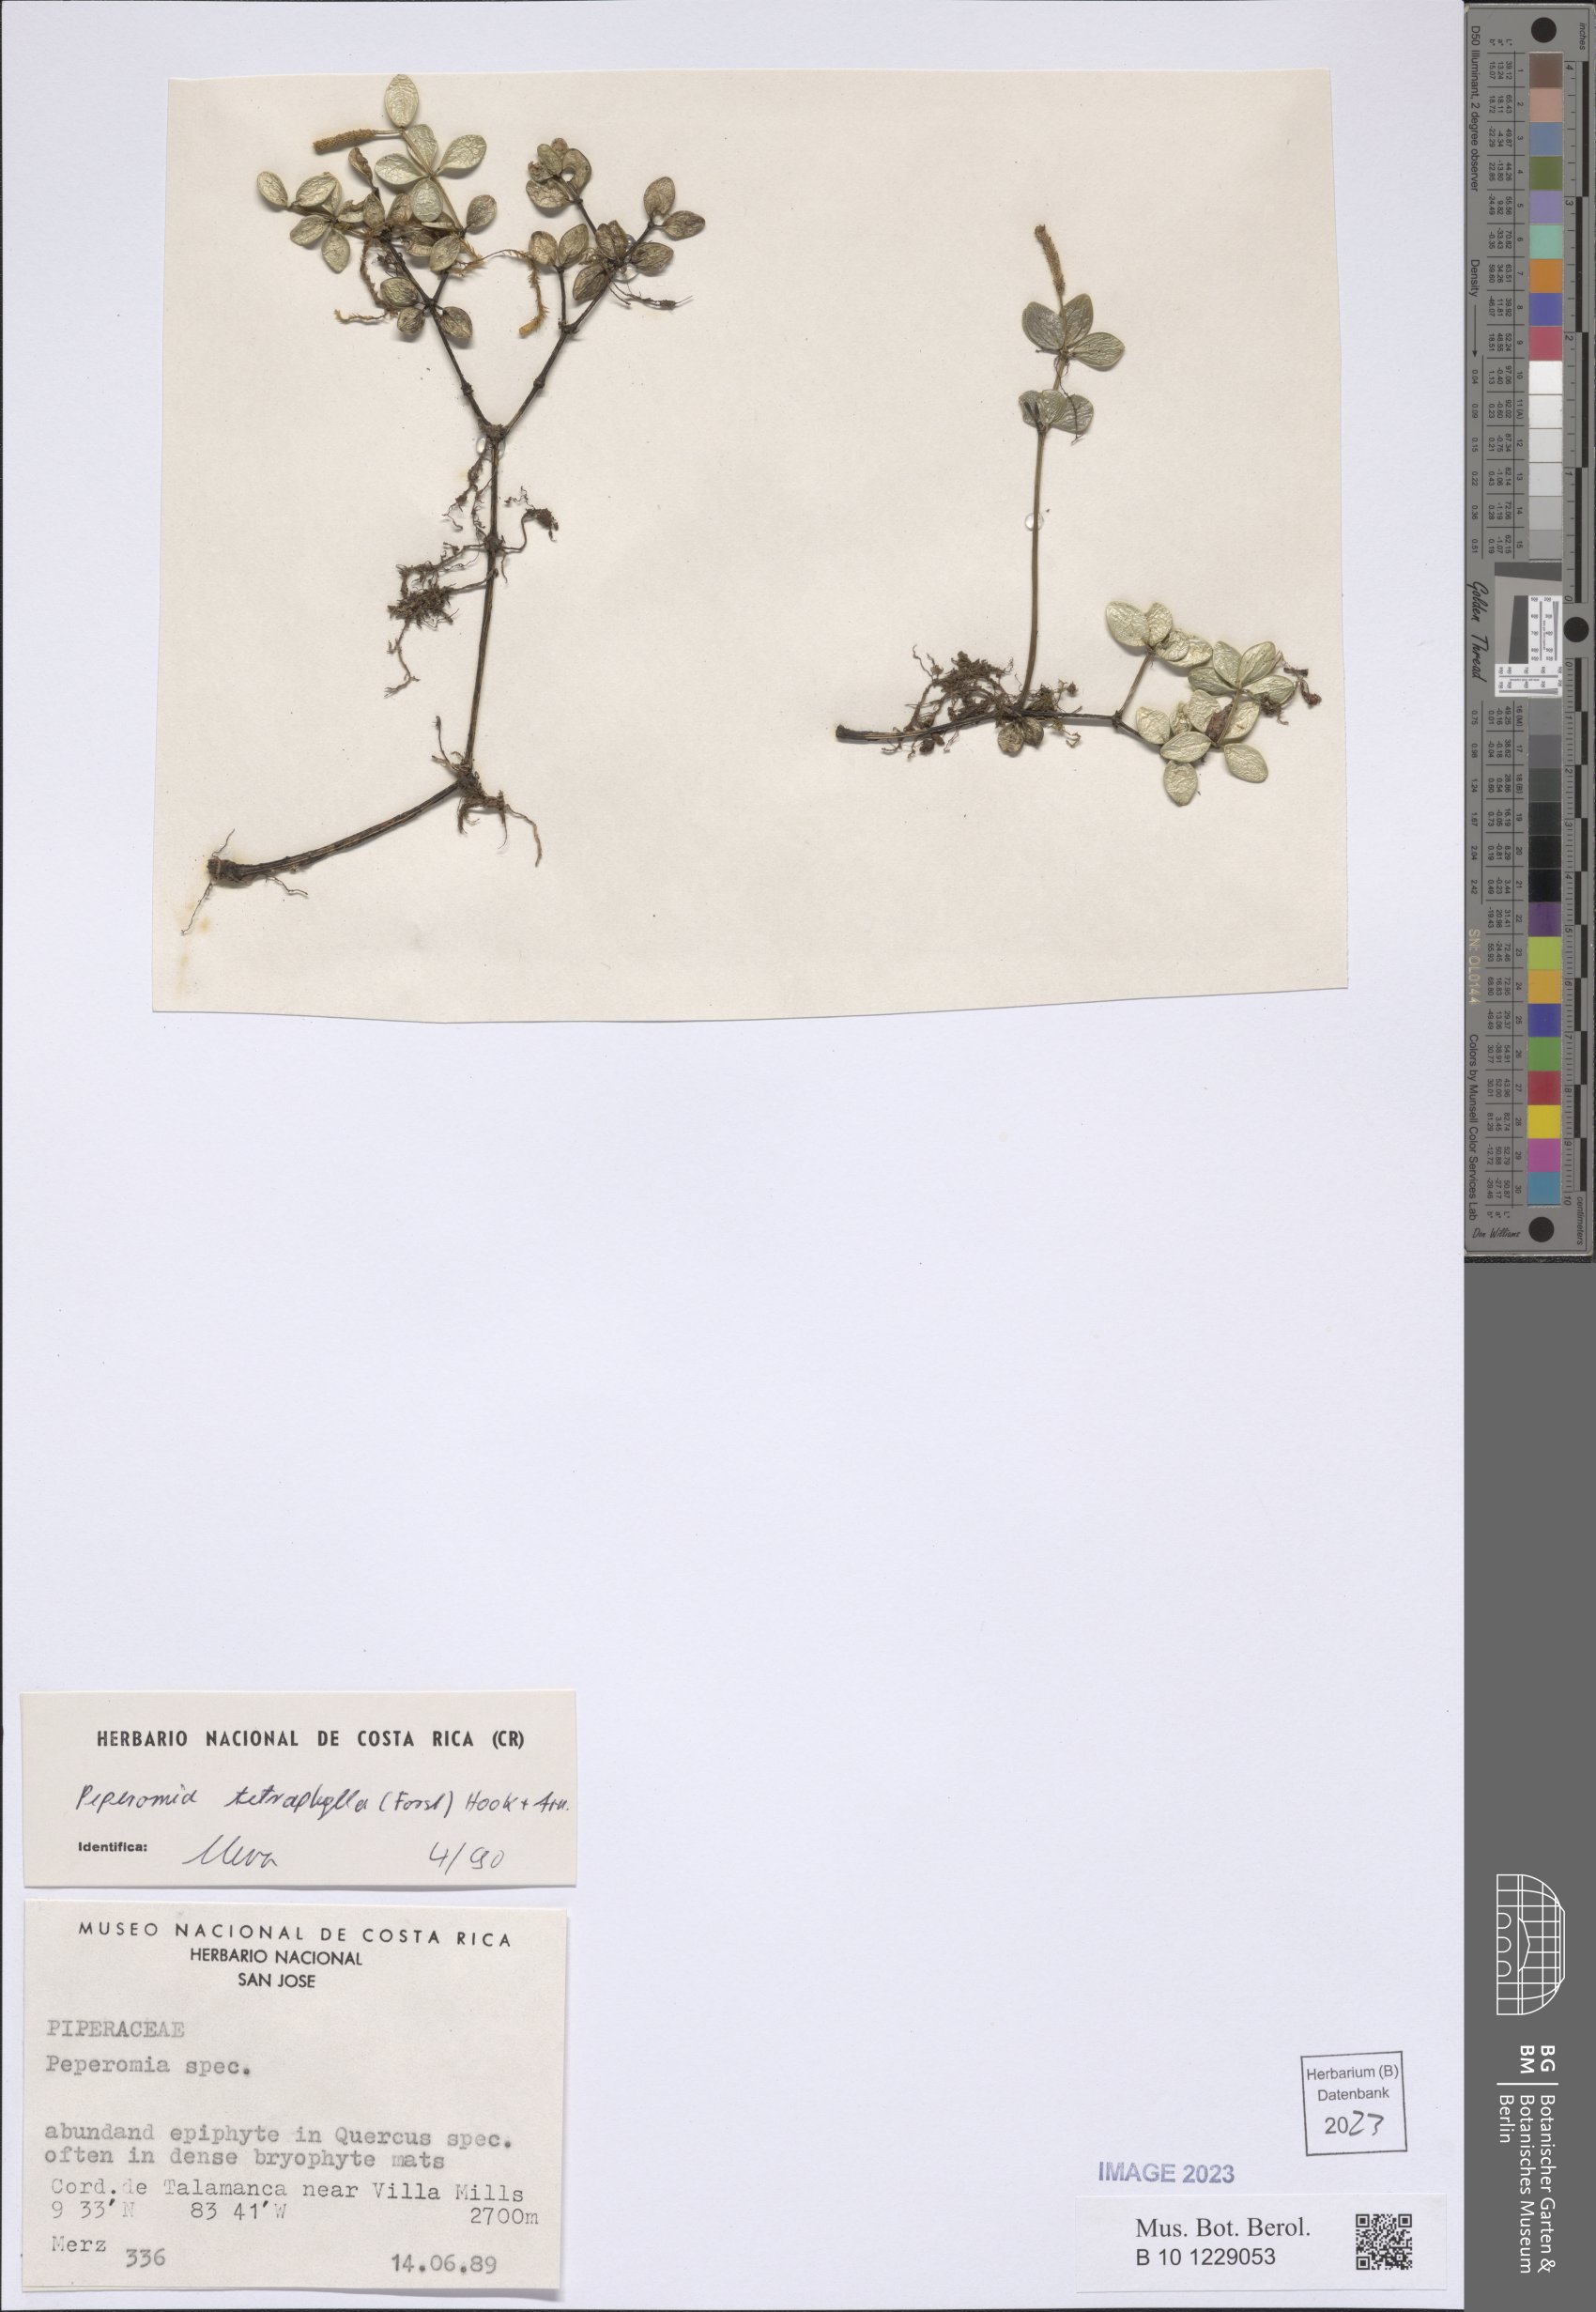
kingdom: Plantae
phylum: Tracheophyta
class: Magnoliopsida
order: Piperales
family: Piperaceae
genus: Peperomia
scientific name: Peperomia tetraphylla
